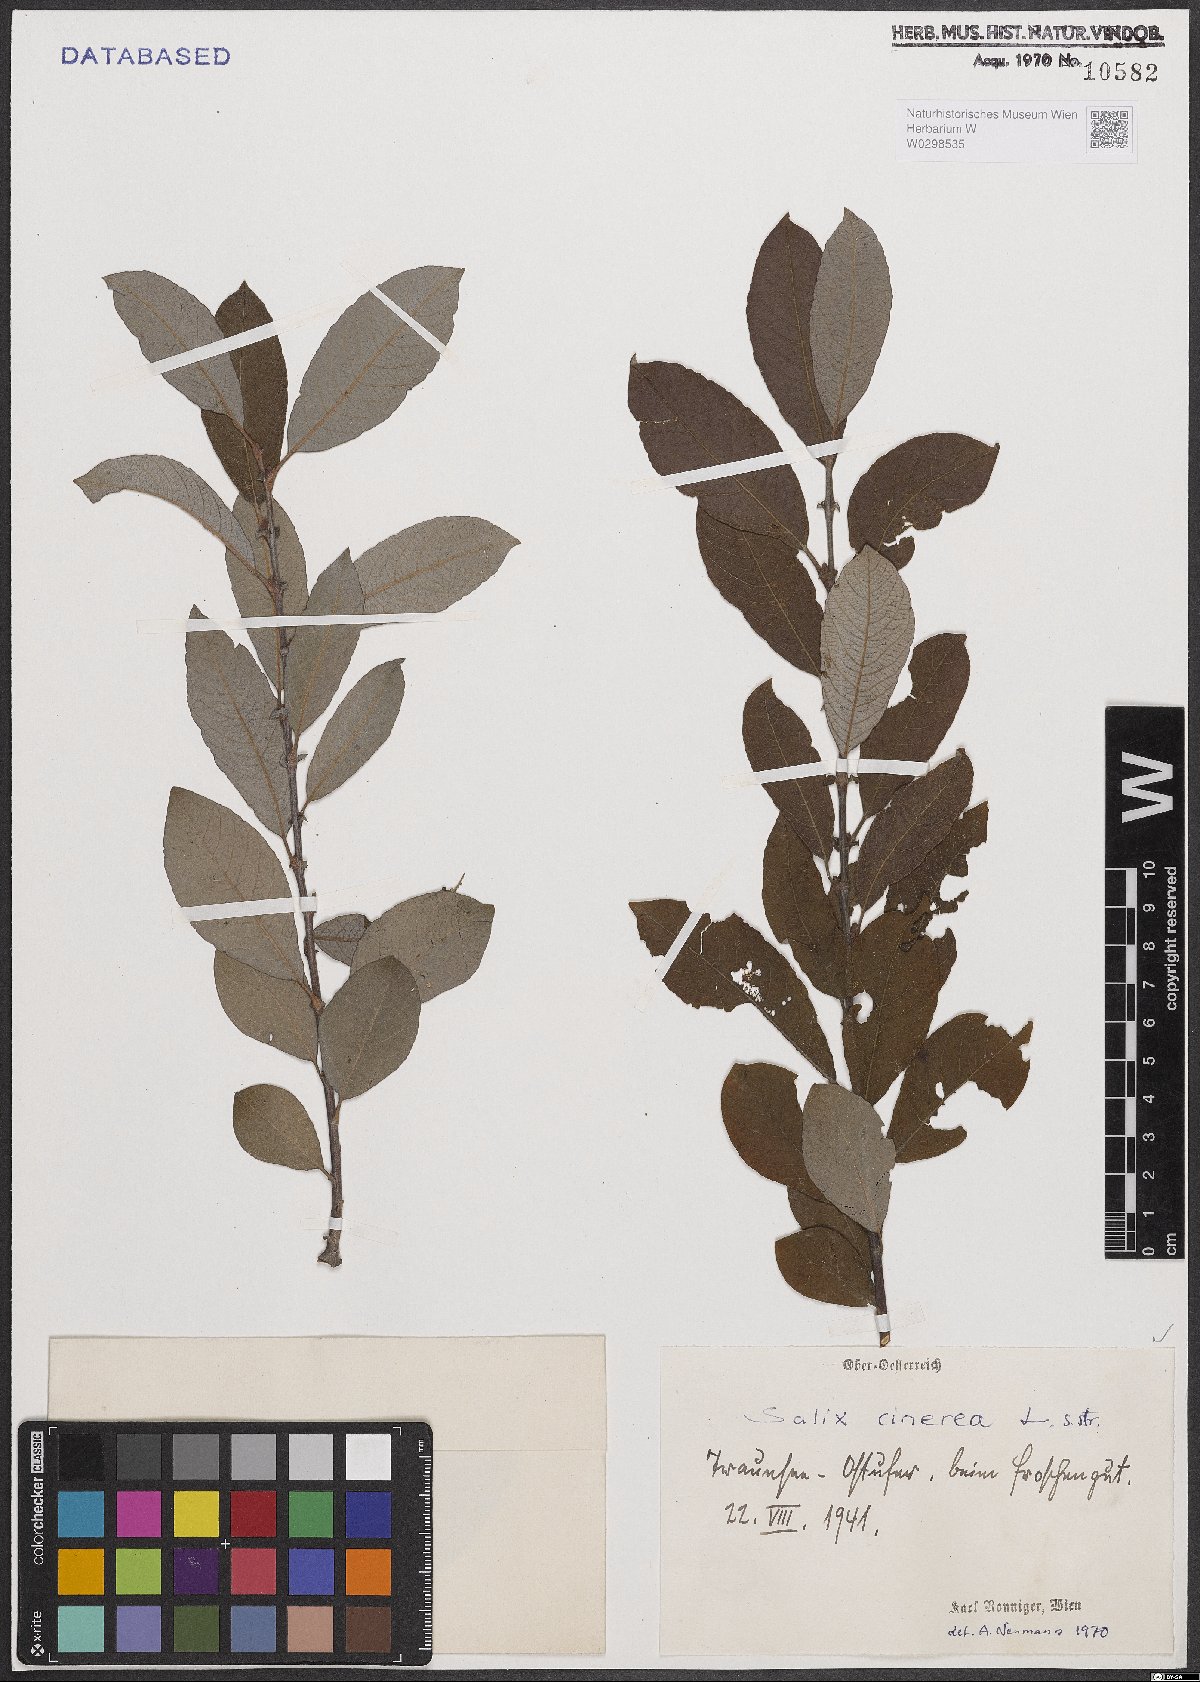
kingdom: Plantae
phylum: Tracheophyta
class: Magnoliopsida
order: Malpighiales
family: Salicaceae
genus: Salix
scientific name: Salix cinerea
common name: Common sallow
